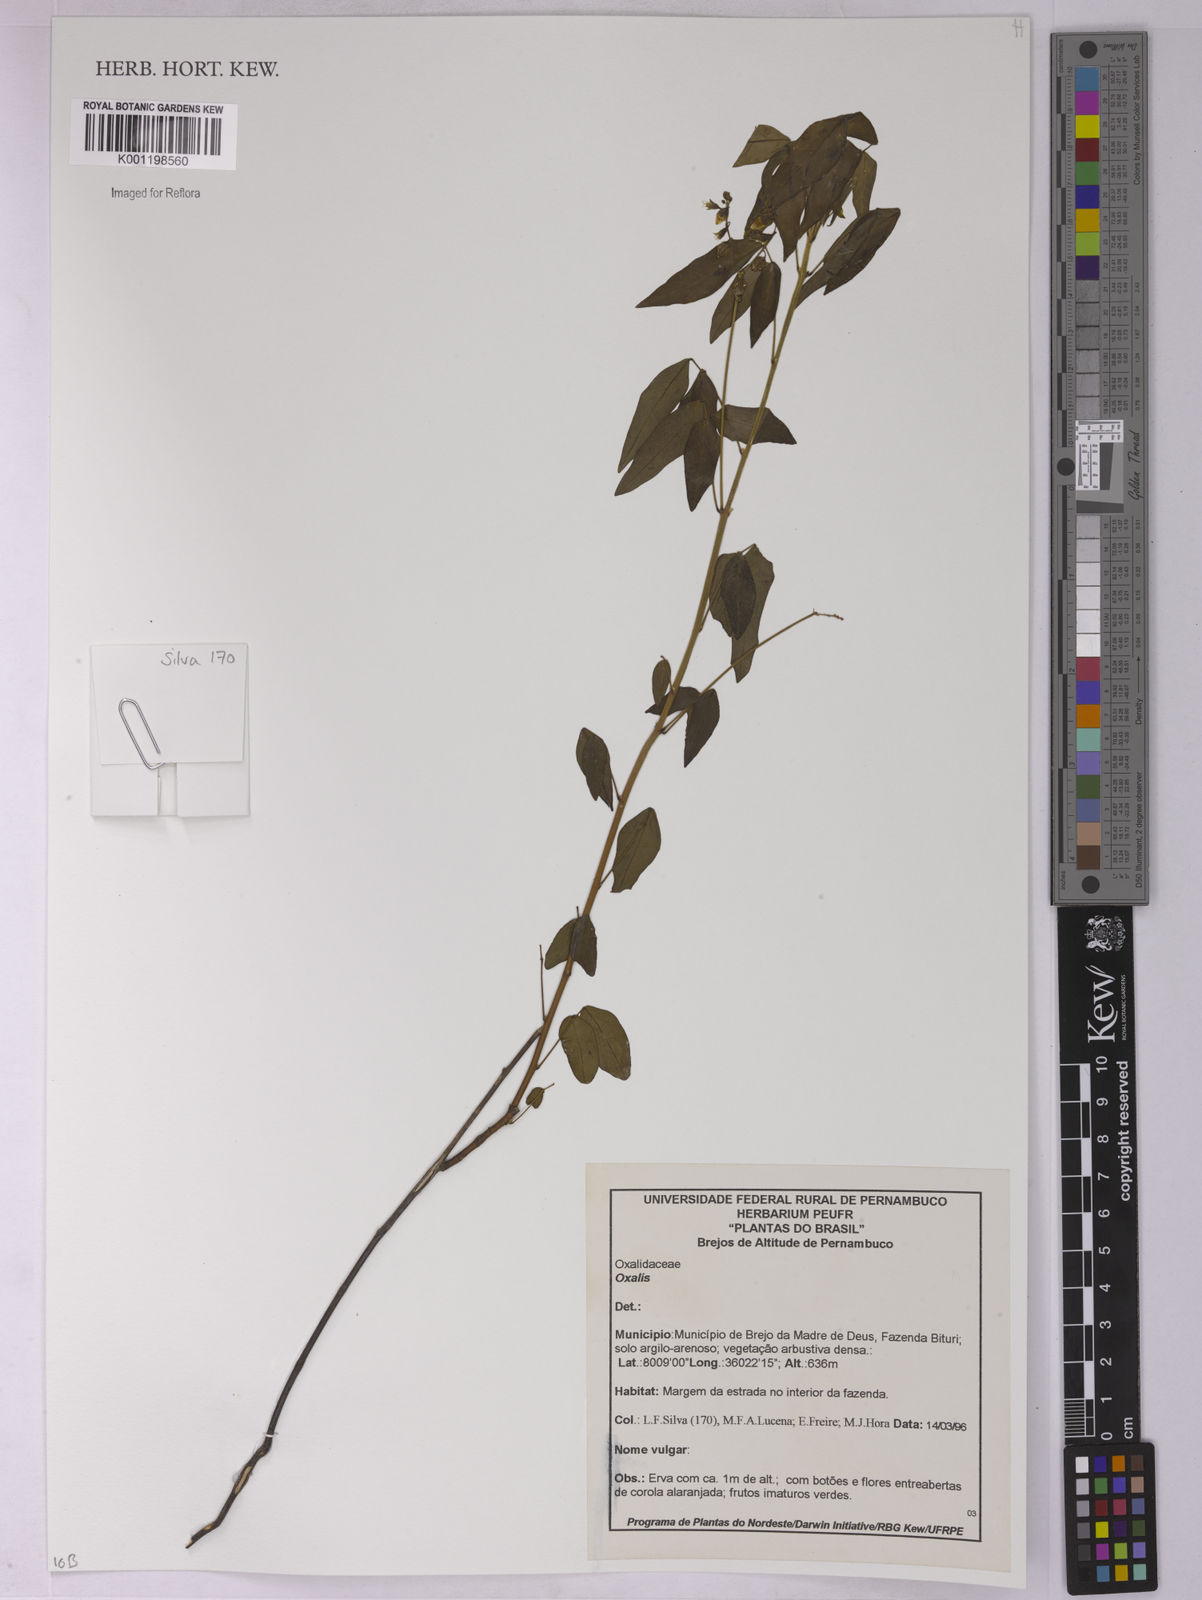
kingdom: Plantae
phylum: Tracheophyta
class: Magnoliopsida
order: Oxalidales
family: Oxalidaceae
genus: Oxalis
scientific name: Oxalis
